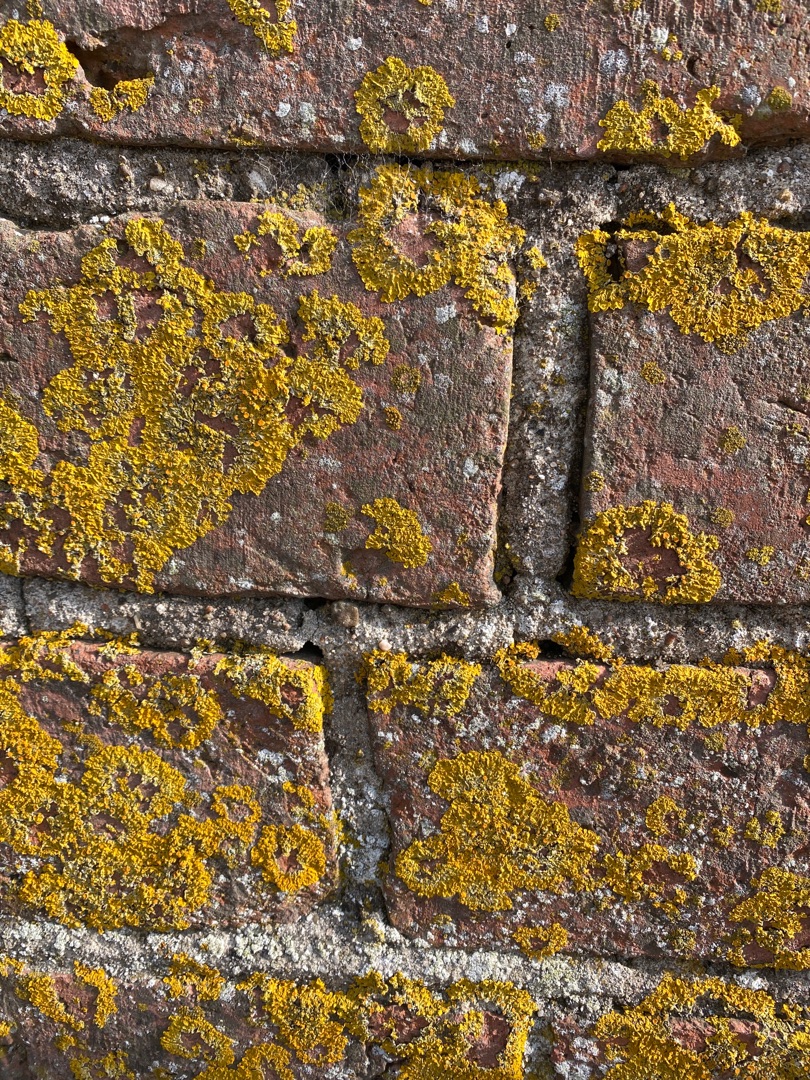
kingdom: Fungi
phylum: Ascomycota
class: Lecanoromycetes
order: Teloschistales
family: Teloschistaceae
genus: Xanthoria
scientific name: Xanthoria parietina
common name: Almindelig væggelav
